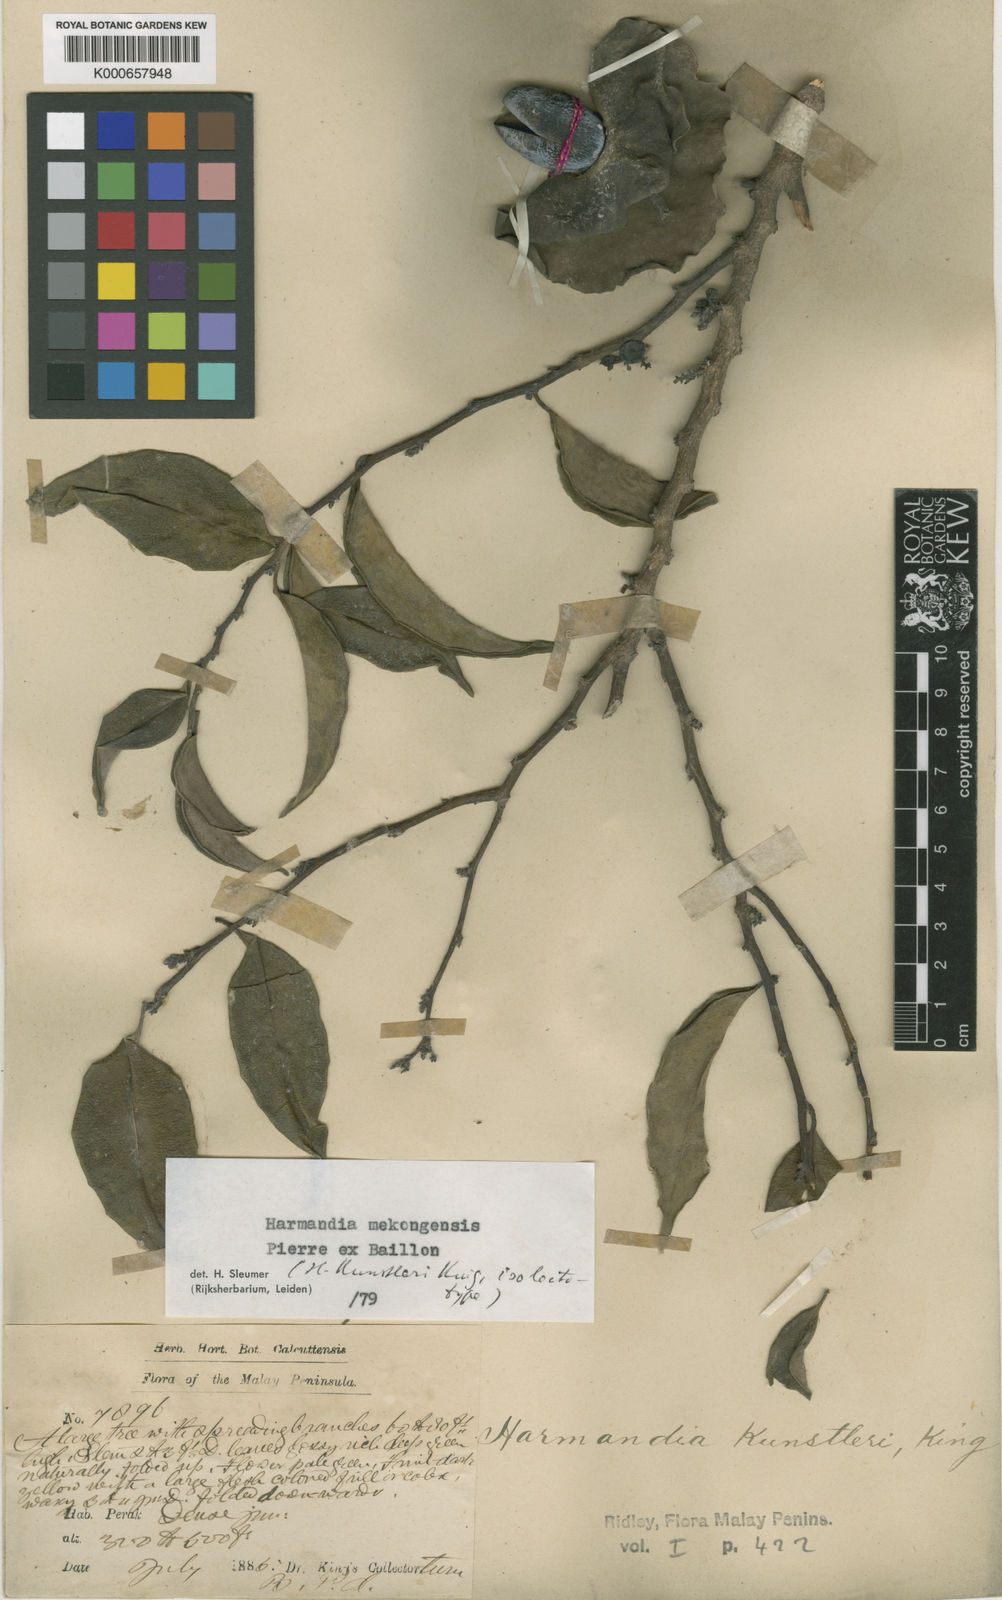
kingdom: Plantae
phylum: Tracheophyta
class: Magnoliopsida
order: Santalales
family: Aptandraceae
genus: Harmandia
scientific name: Harmandia mekongensis
